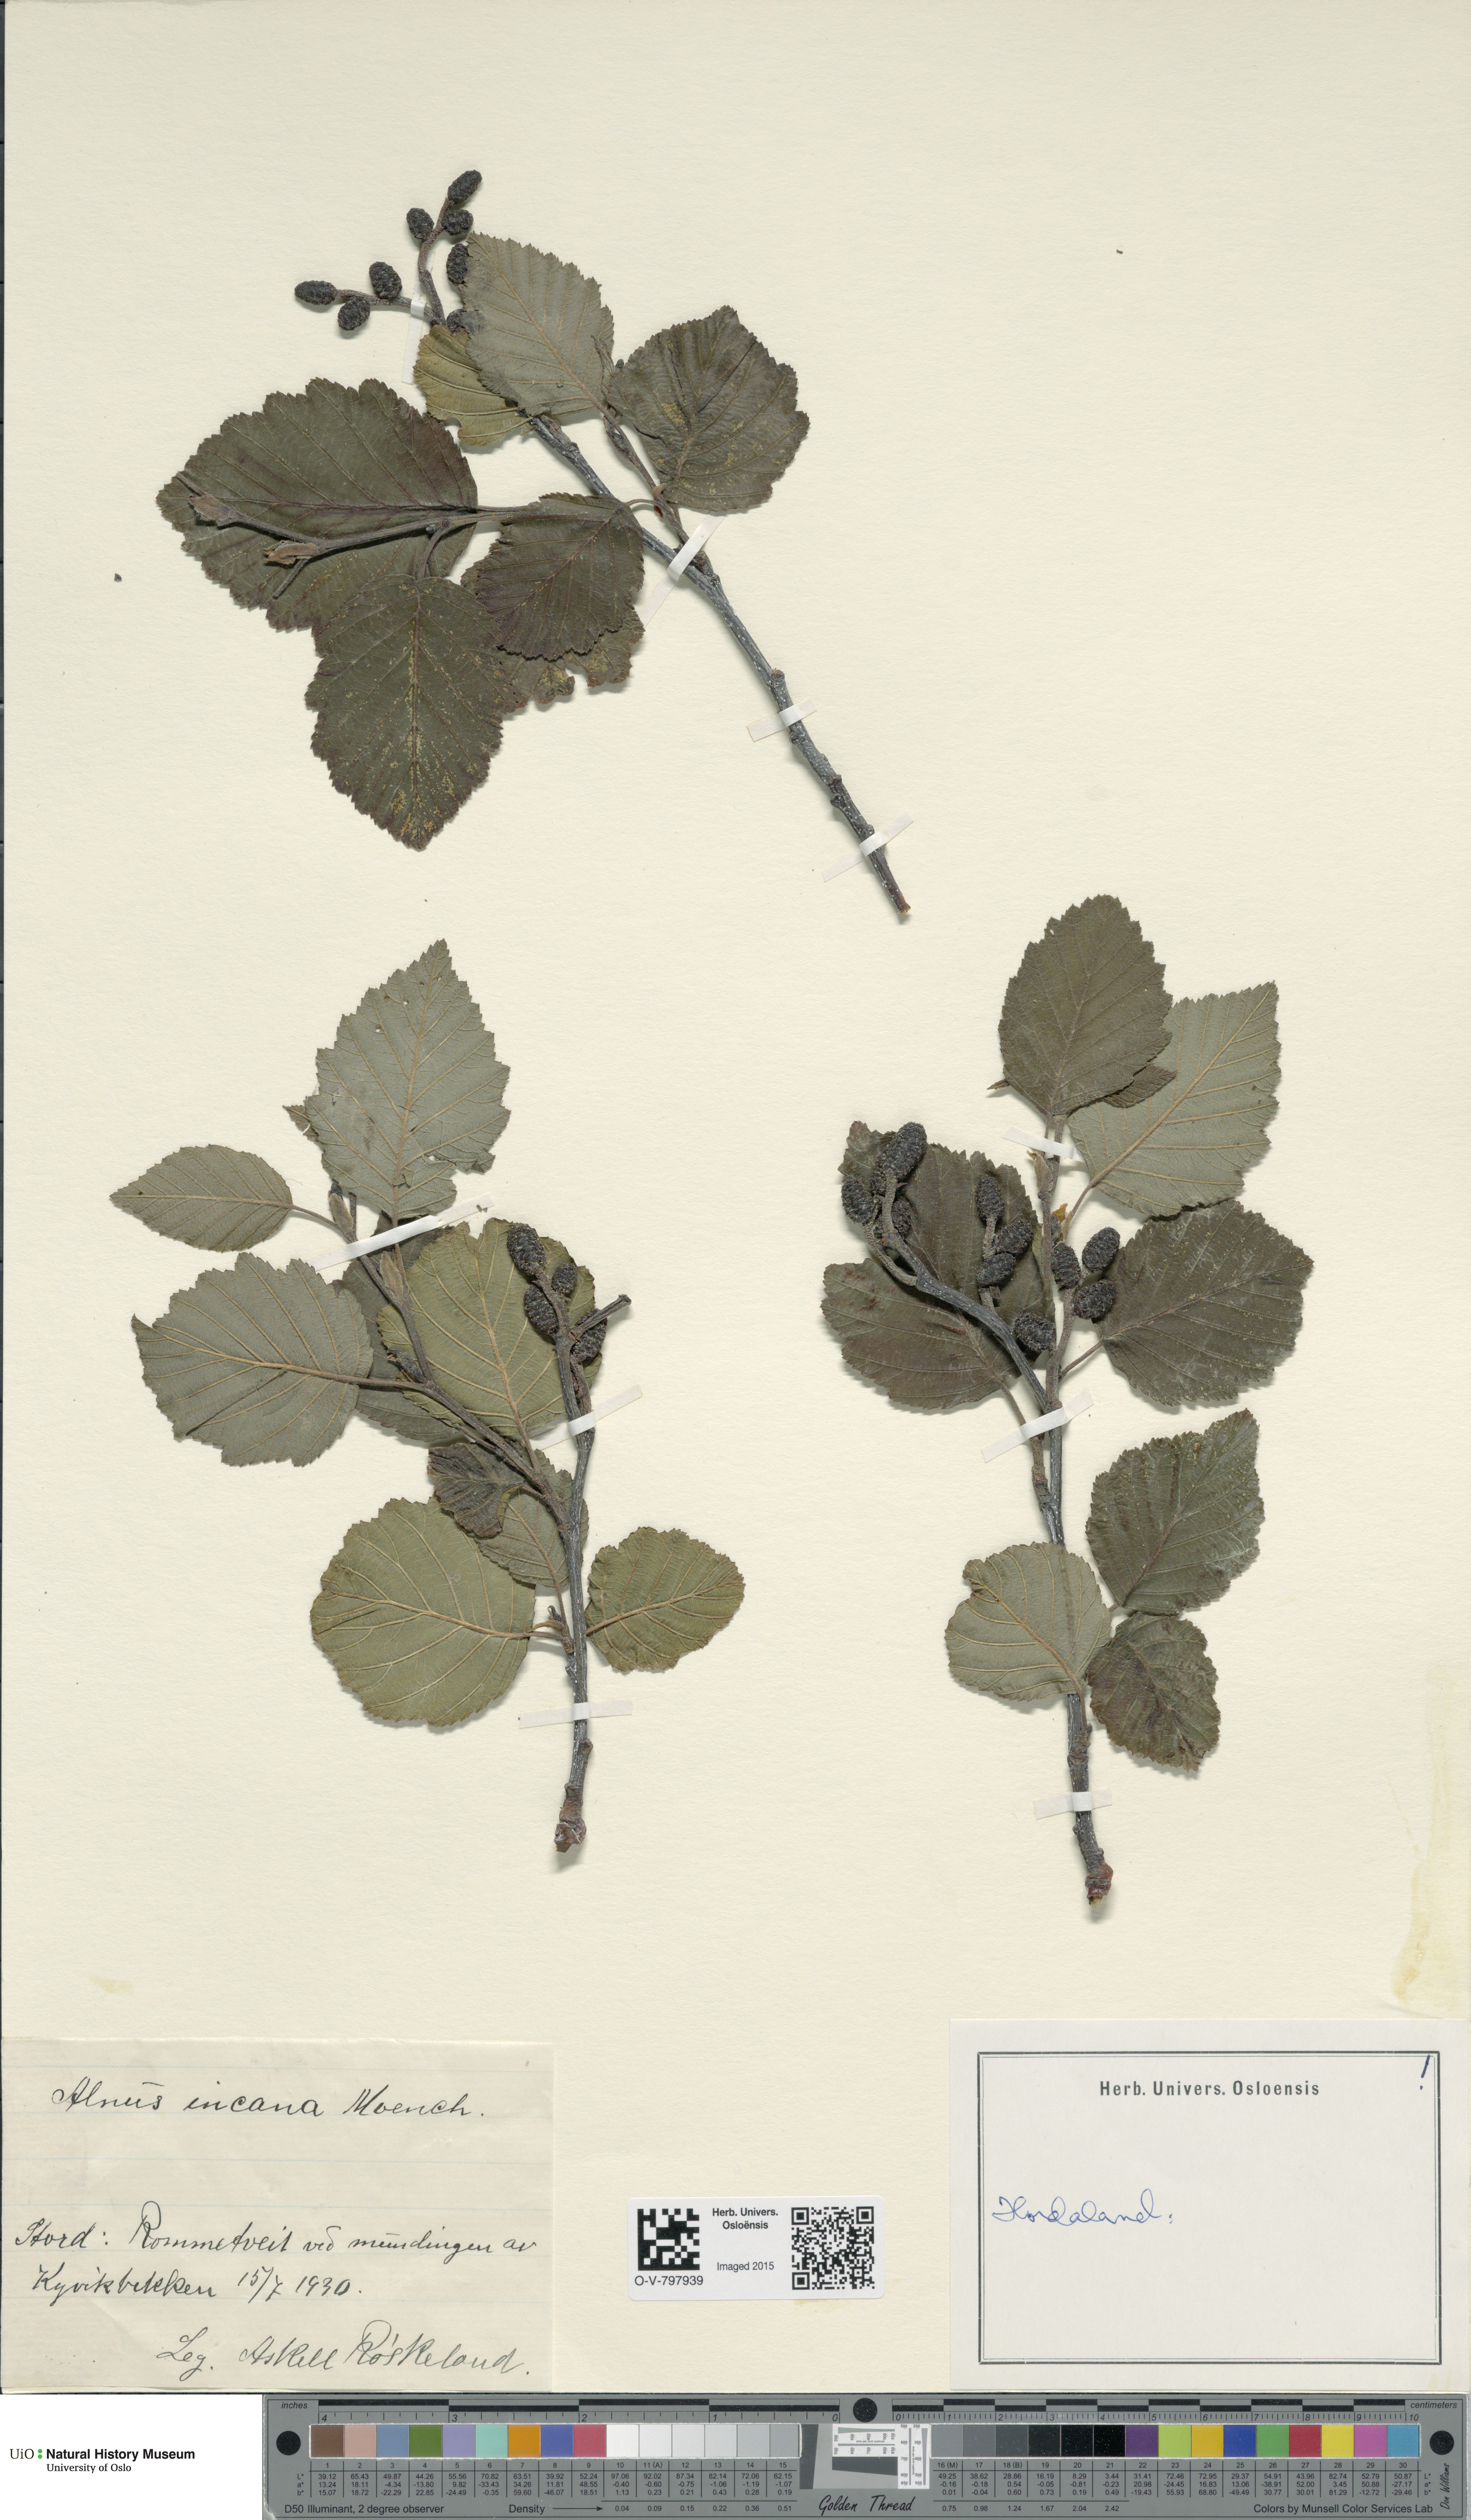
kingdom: Plantae
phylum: Tracheophyta
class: Magnoliopsida
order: Fagales
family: Betulaceae
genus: Alnus
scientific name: Alnus incana
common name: Grey alder
